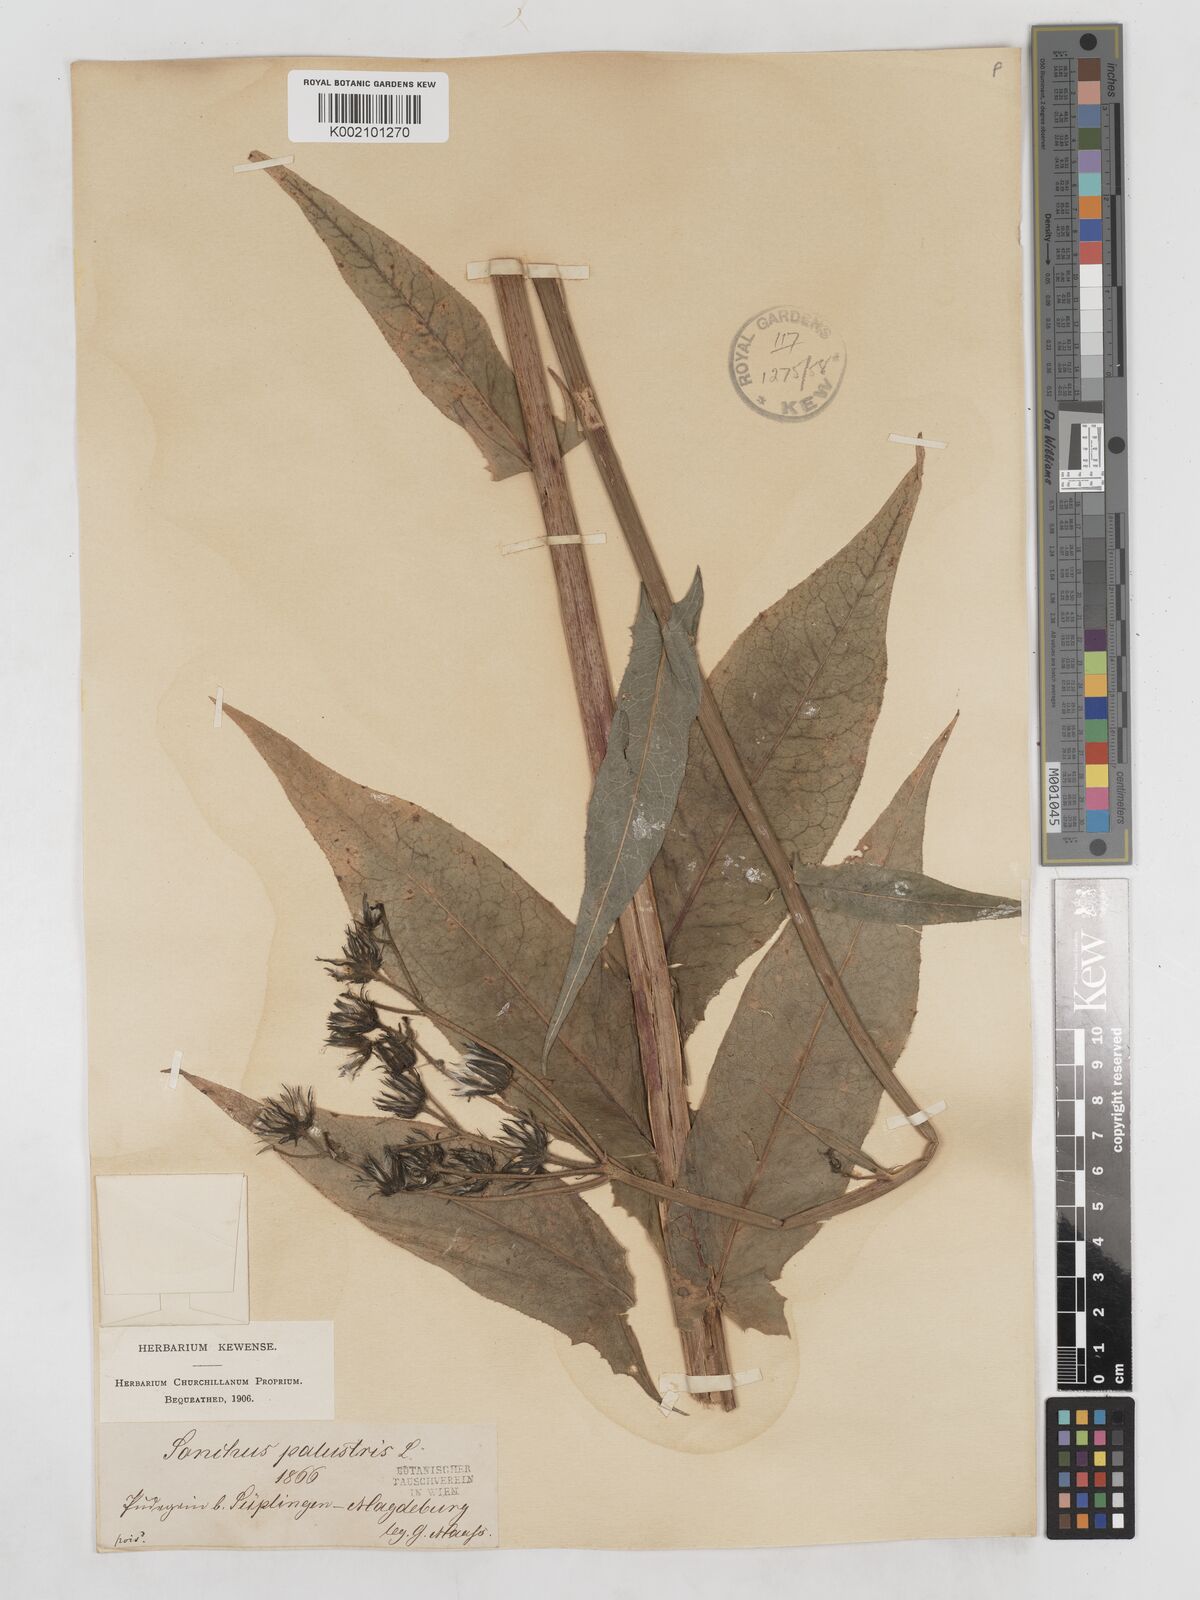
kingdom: Plantae
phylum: Tracheophyta
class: Magnoliopsida
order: Asterales
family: Asteraceae
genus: Sonchus
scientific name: Sonchus palustris
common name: Marsh sow-thistle
